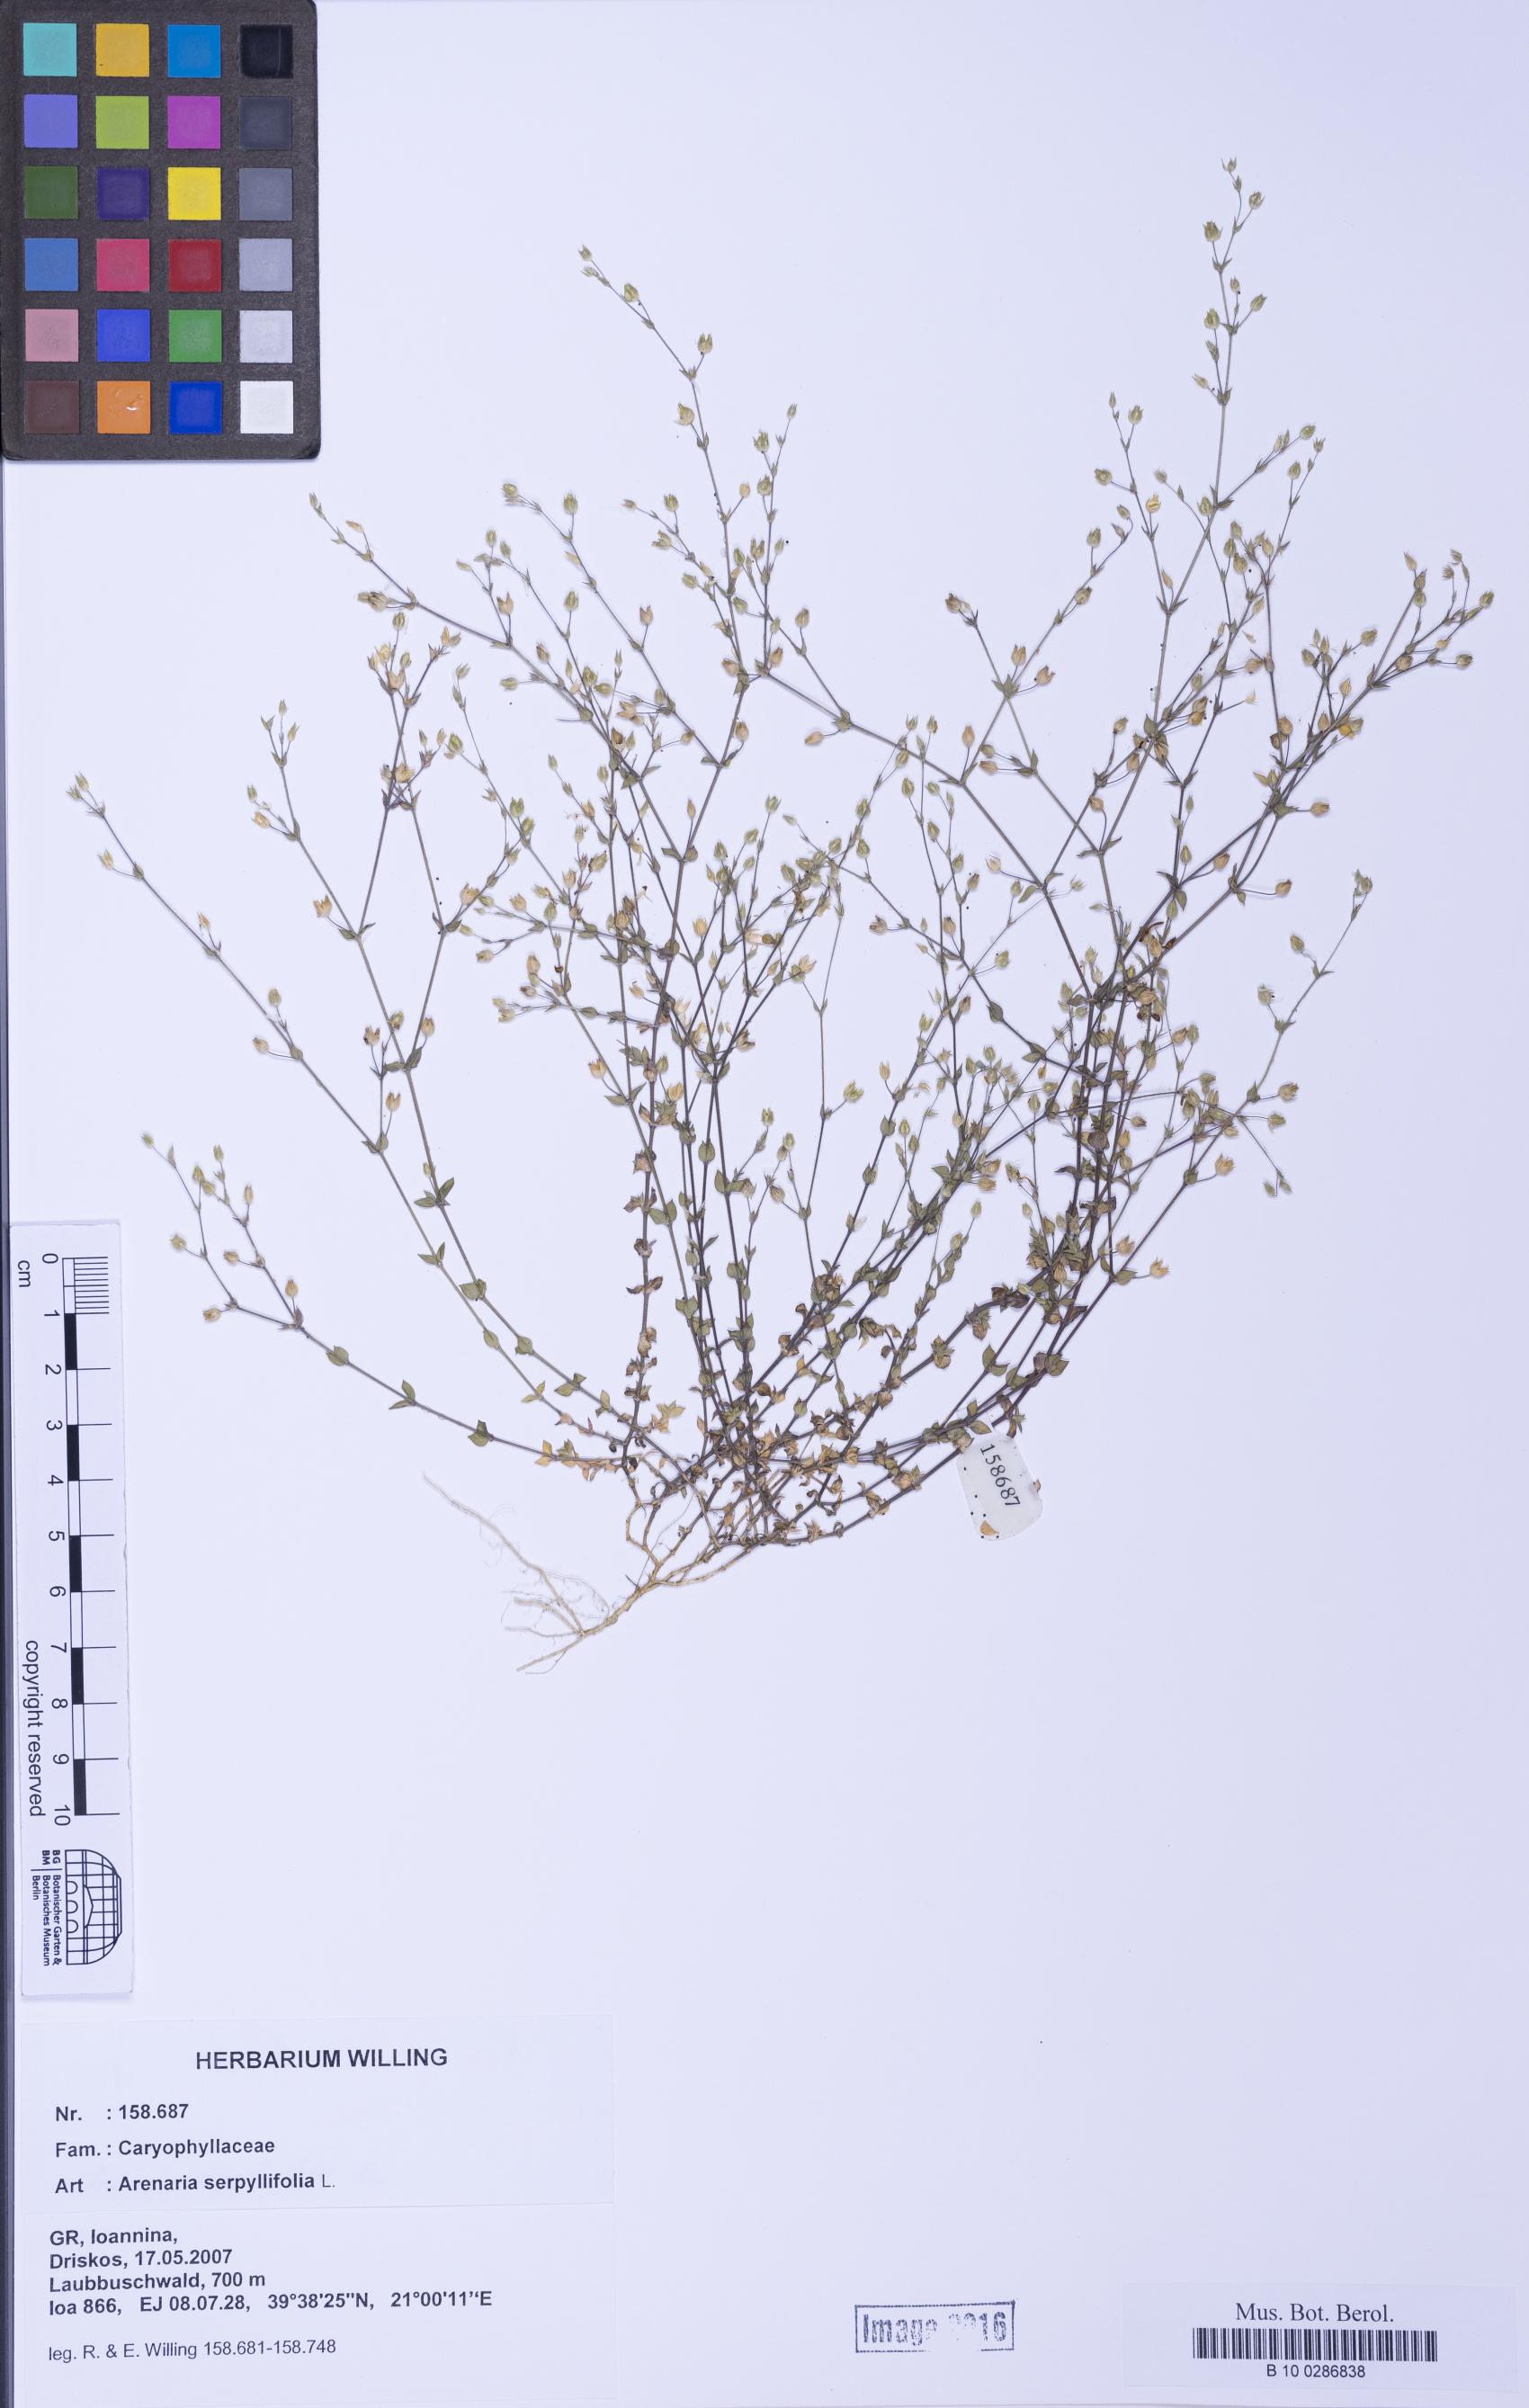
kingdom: Plantae
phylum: Tracheophyta
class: Magnoliopsida
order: Caryophyllales
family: Caryophyllaceae
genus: Arenaria
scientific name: Arenaria serpyllifolia
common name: Thyme-leaved sandwort
